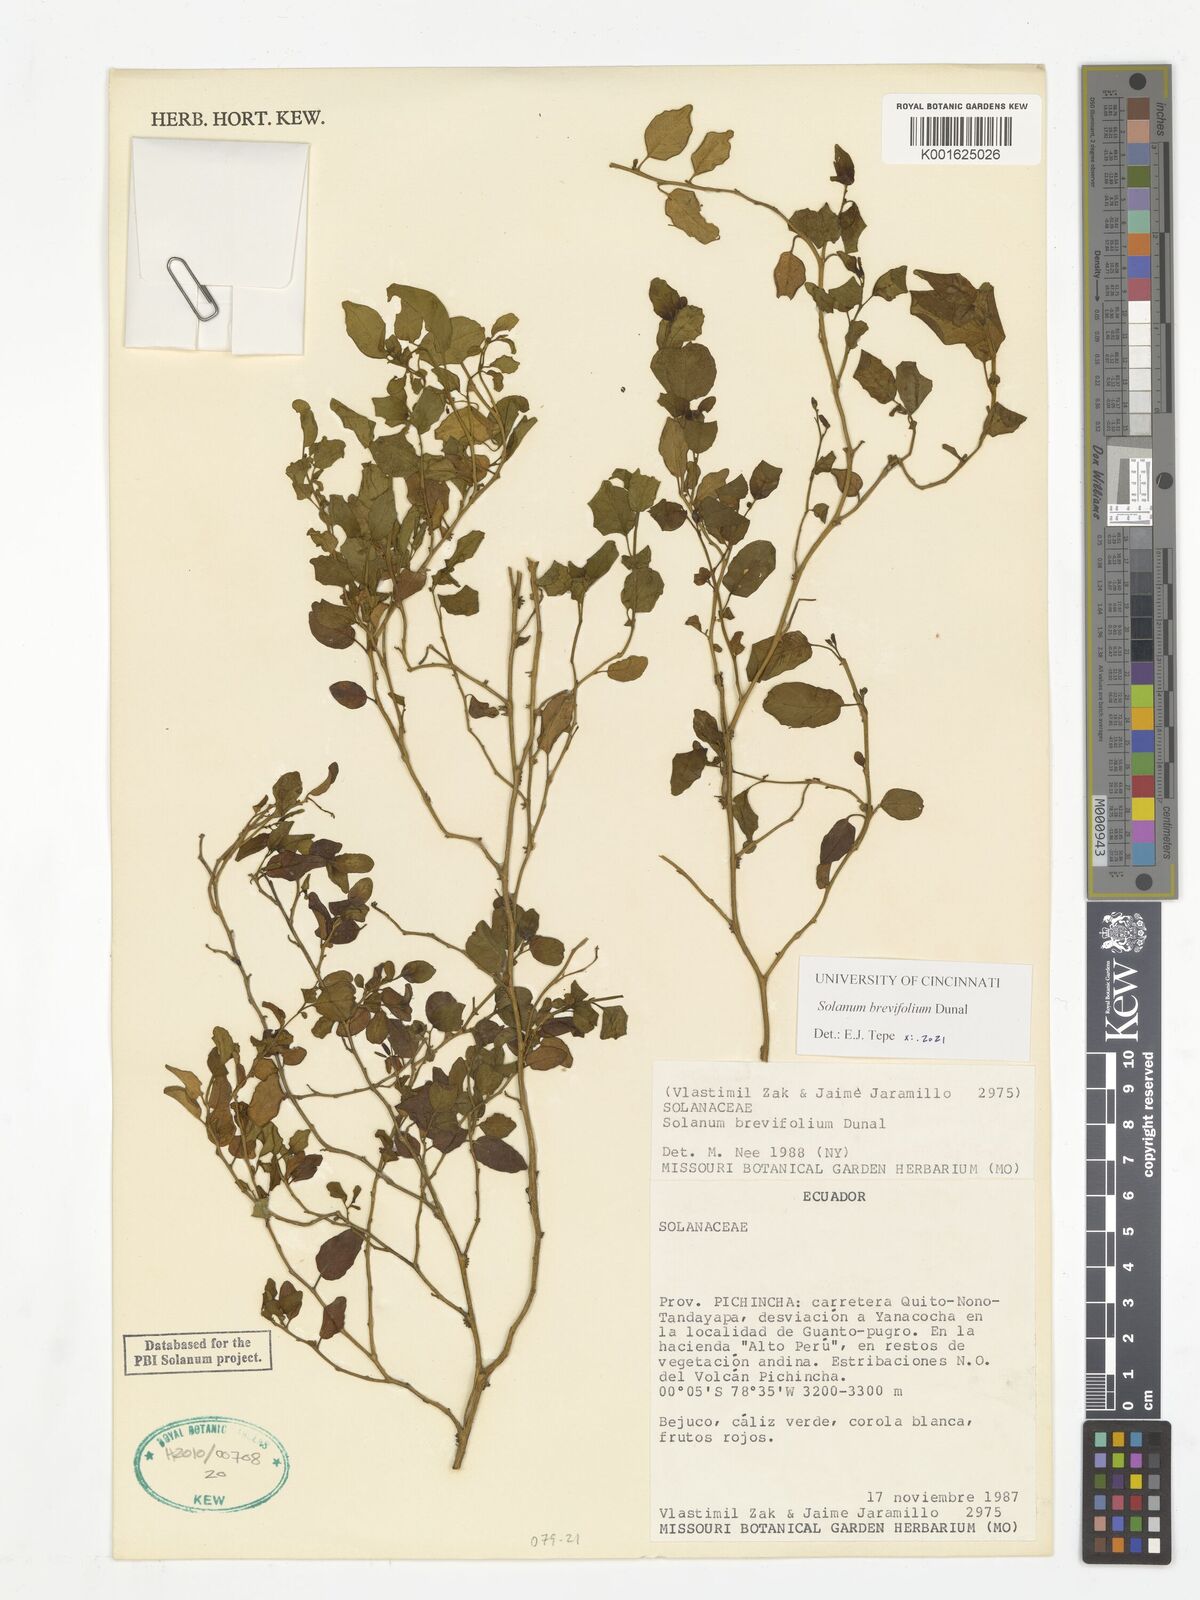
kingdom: Plantae
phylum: Tracheophyta
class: Magnoliopsida
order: Solanales
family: Solanaceae
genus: Solanum
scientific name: Solanum brevifolium
